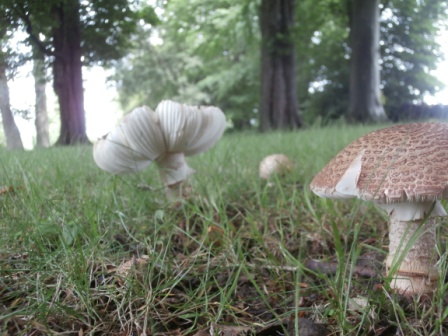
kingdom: Fungi
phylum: Basidiomycota
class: Agaricomycetes
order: Agaricales
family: Amanitaceae
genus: Amanita
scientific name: Amanita rubescens
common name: rødmende fluesvamp
